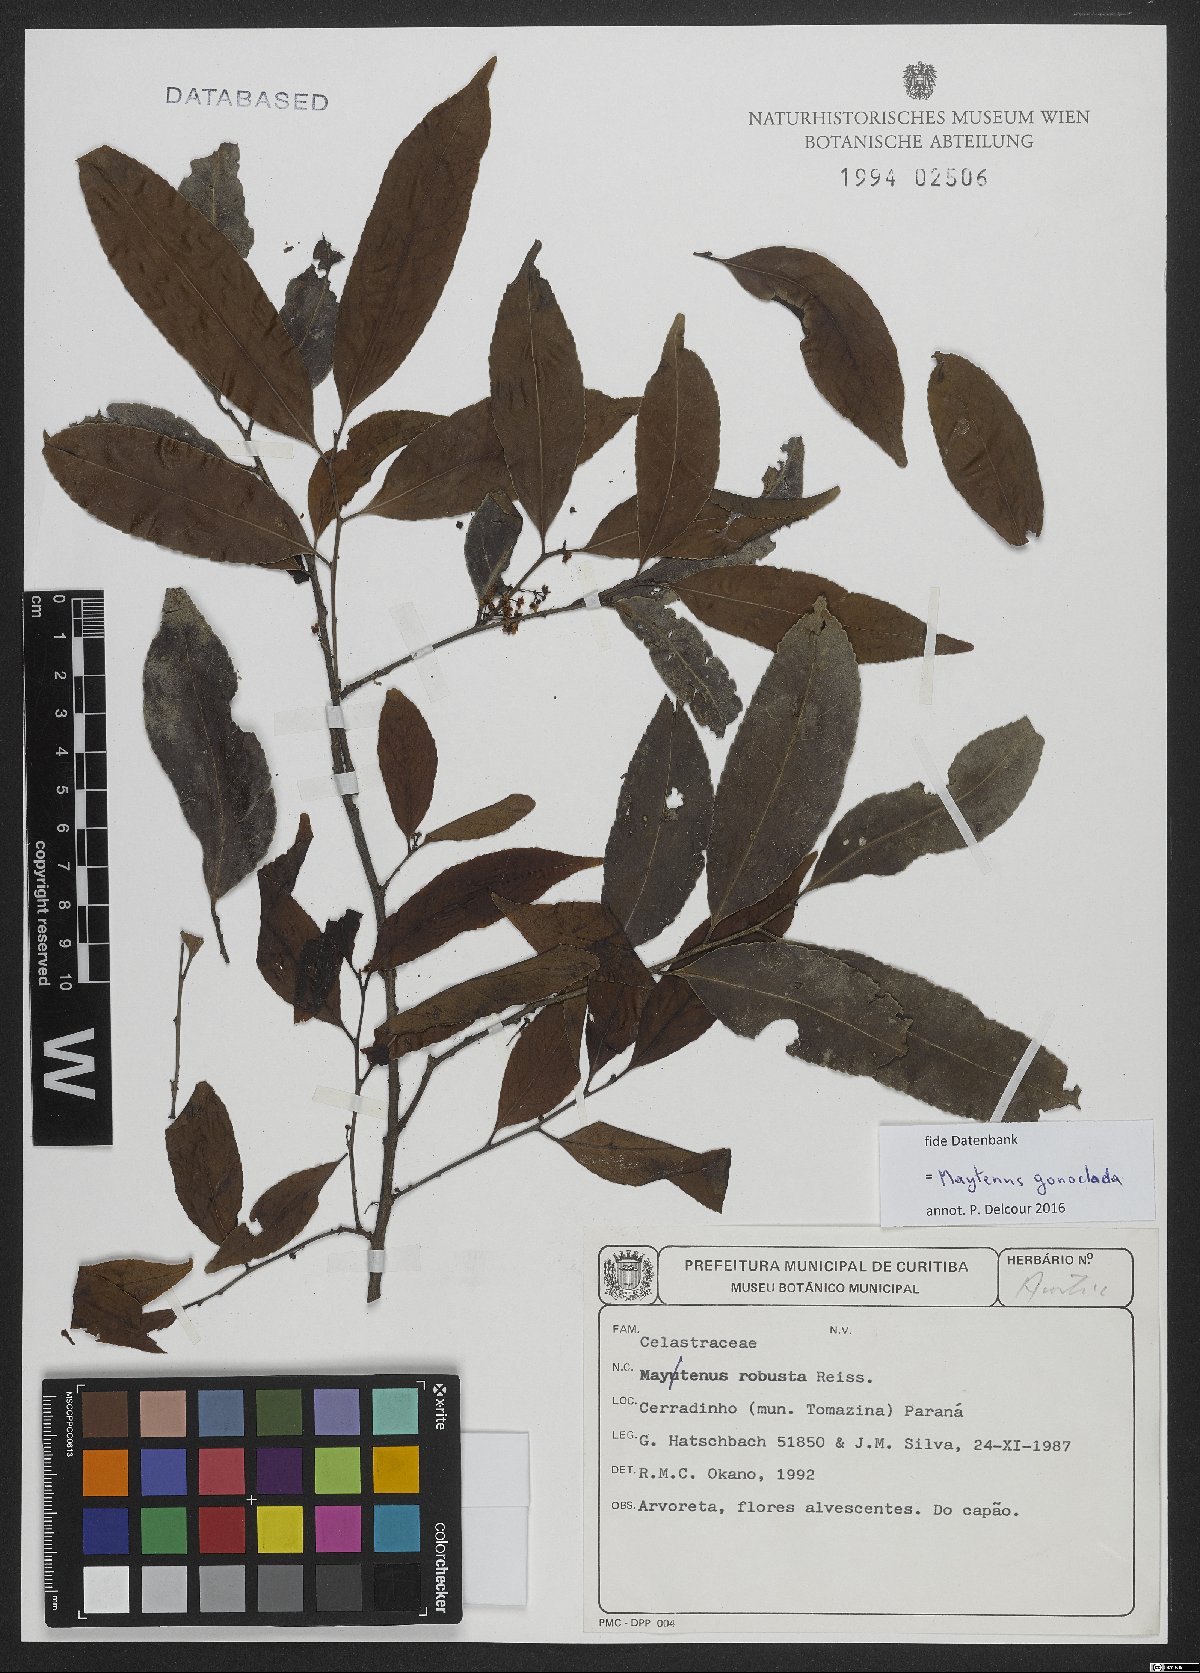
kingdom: Plantae
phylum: Tracheophyta
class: Magnoliopsida
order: Celastrales
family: Celastraceae
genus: Monteverdia
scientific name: Monteverdia gonoclada
